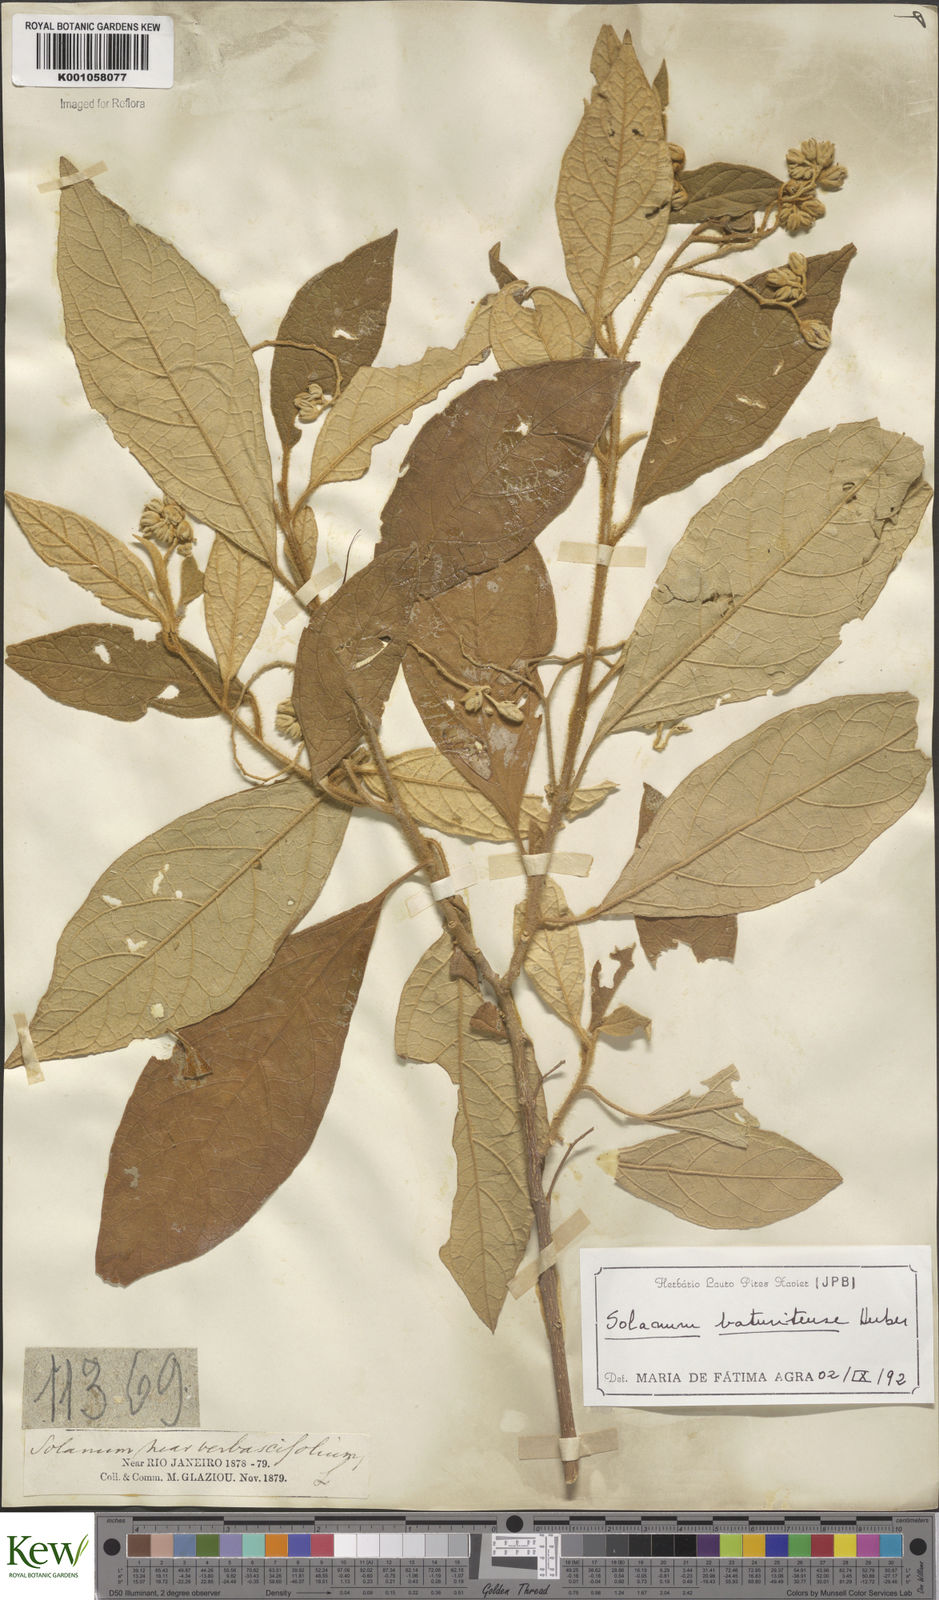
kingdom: Plantae
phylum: Tracheophyta
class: Magnoliopsida
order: Solanales
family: Solanaceae
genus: Solanum
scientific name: Solanum rhytidoandrum
